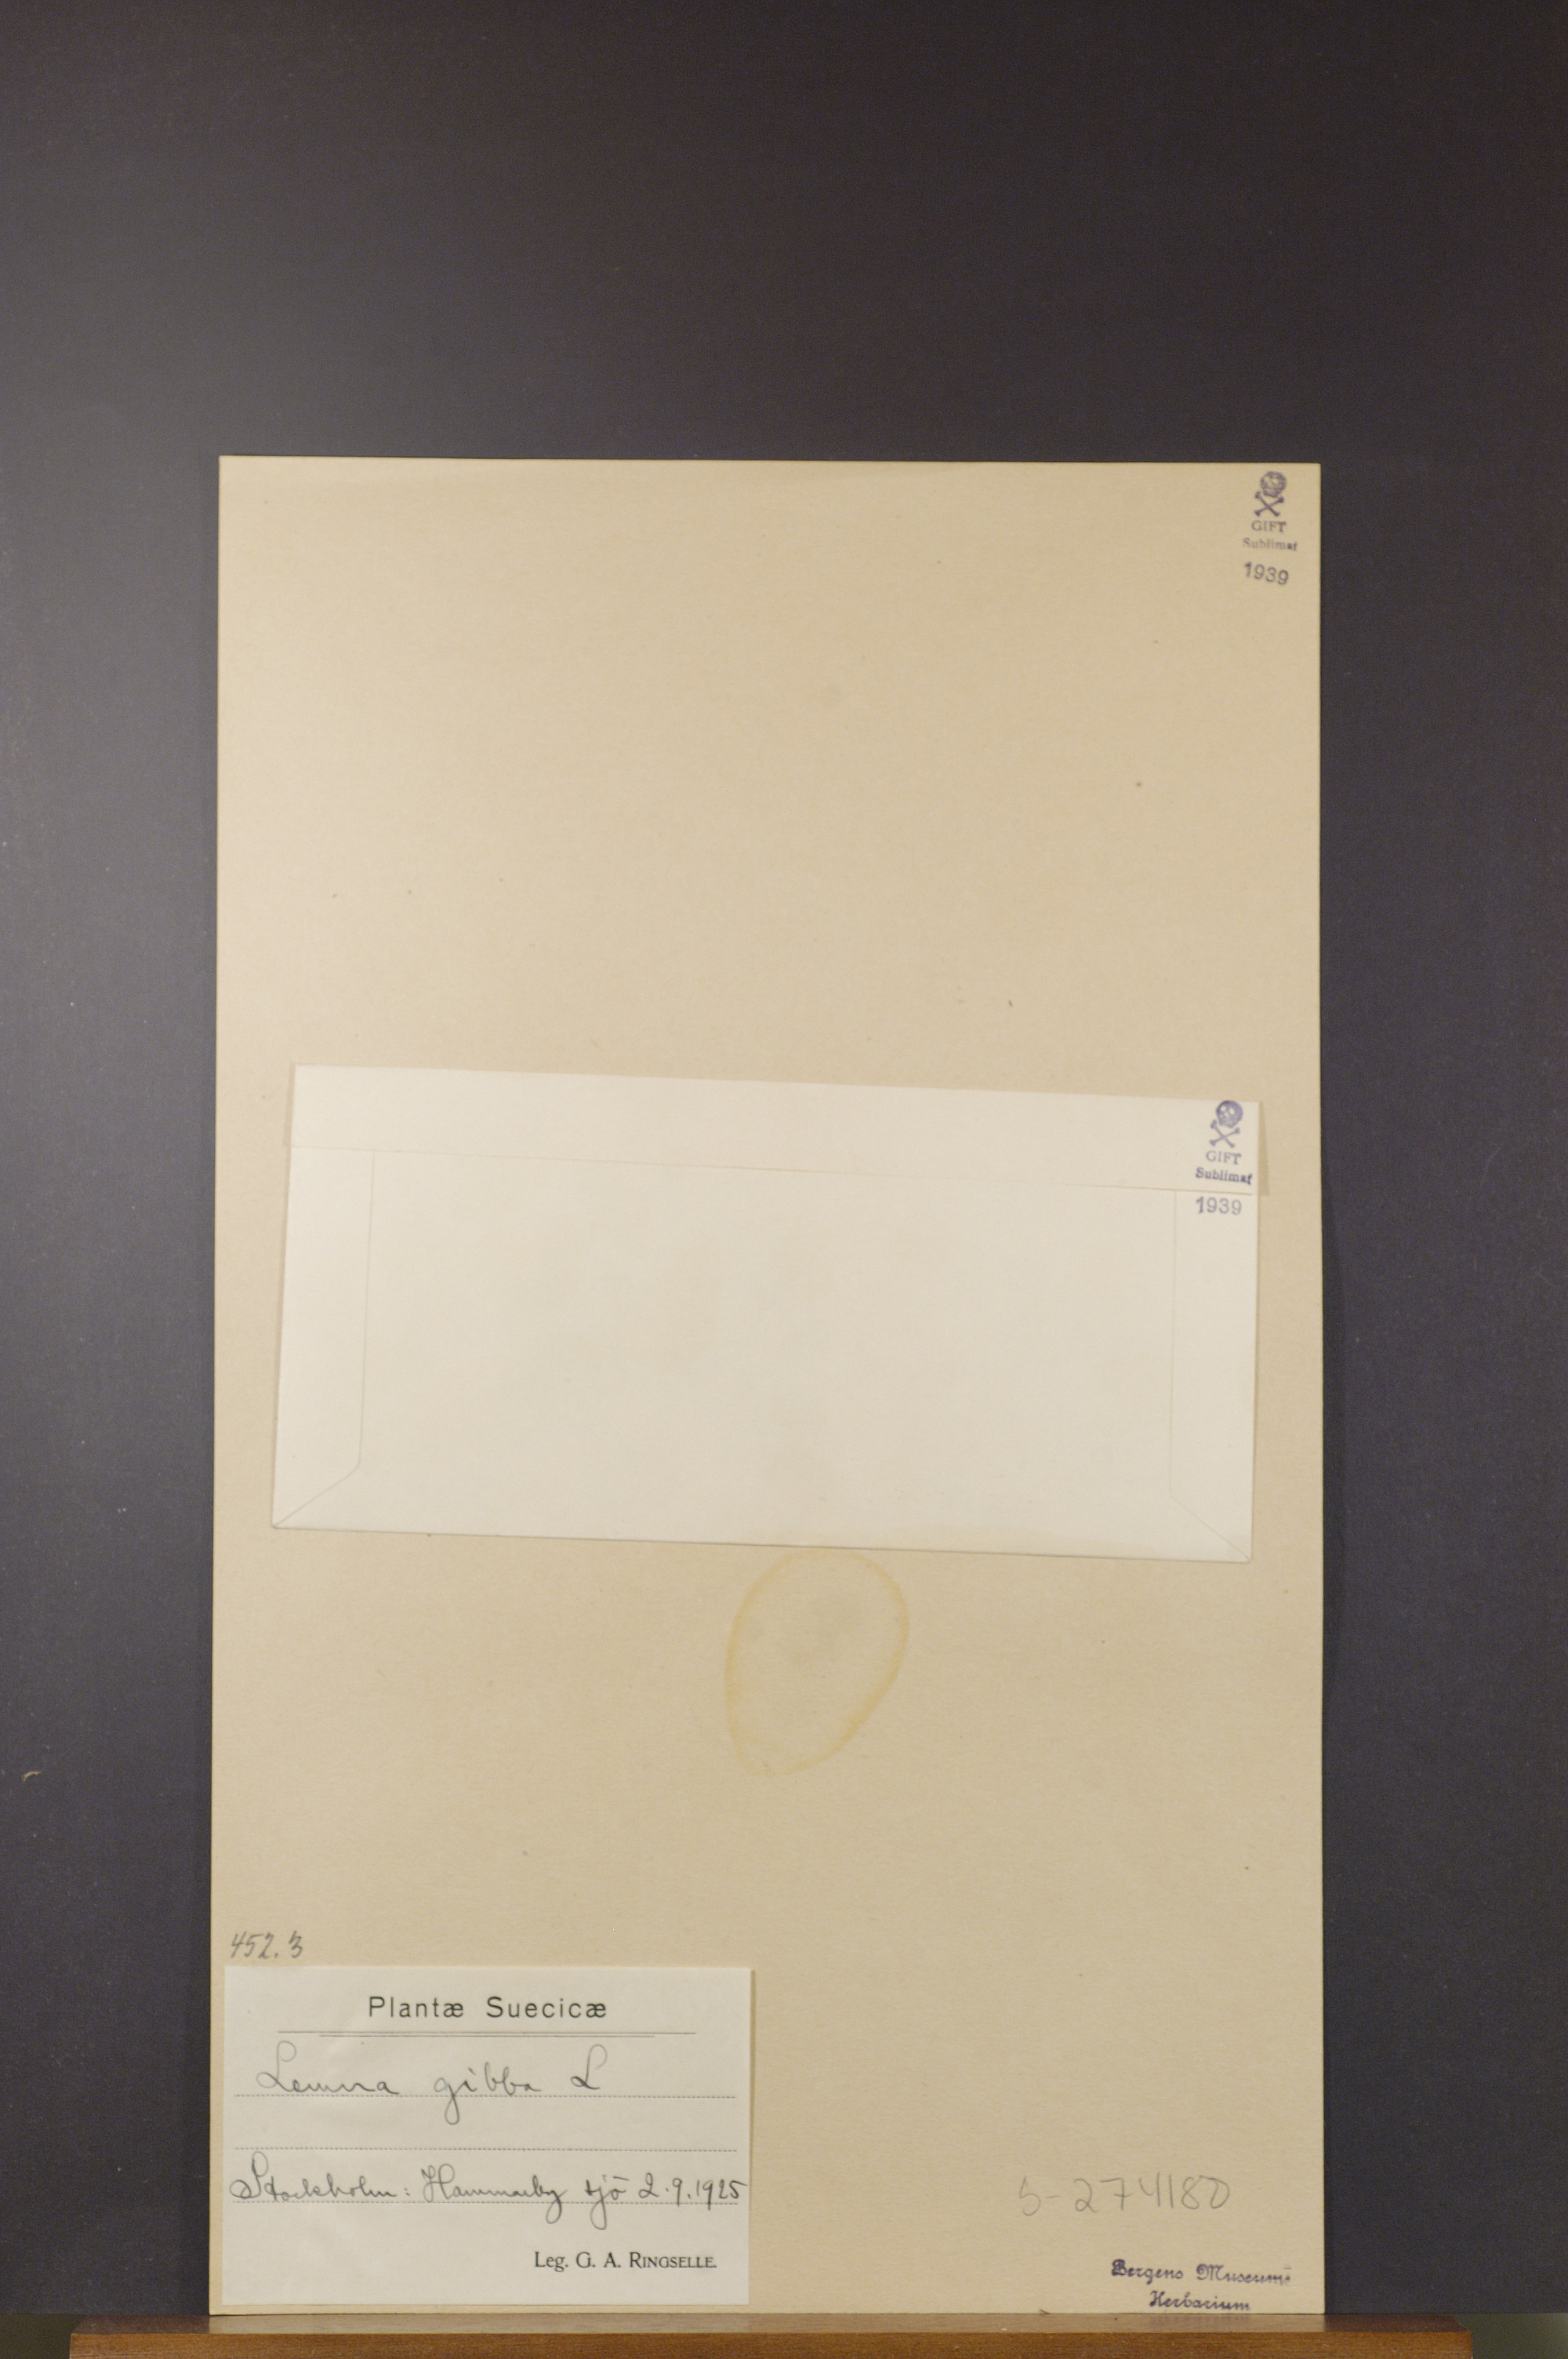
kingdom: Plantae
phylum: Tracheophyta
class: Liliopsida
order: Alismatales
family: Araceae
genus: Lemna
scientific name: Lemna gibba
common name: Fat duckweed
